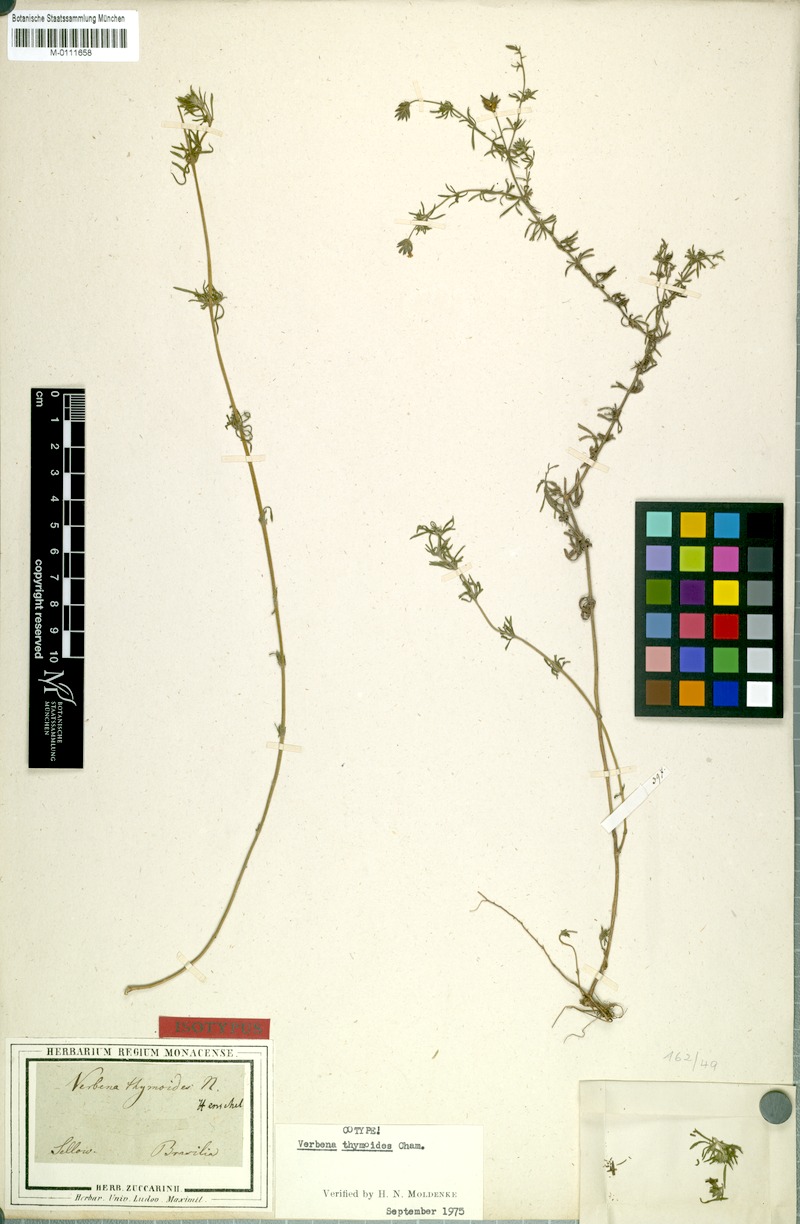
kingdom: Plantae
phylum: Tracheophyta
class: Magnoliopsida
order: Lamiales
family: Verbenaceae
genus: Verbena
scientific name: Verbena thymoides
